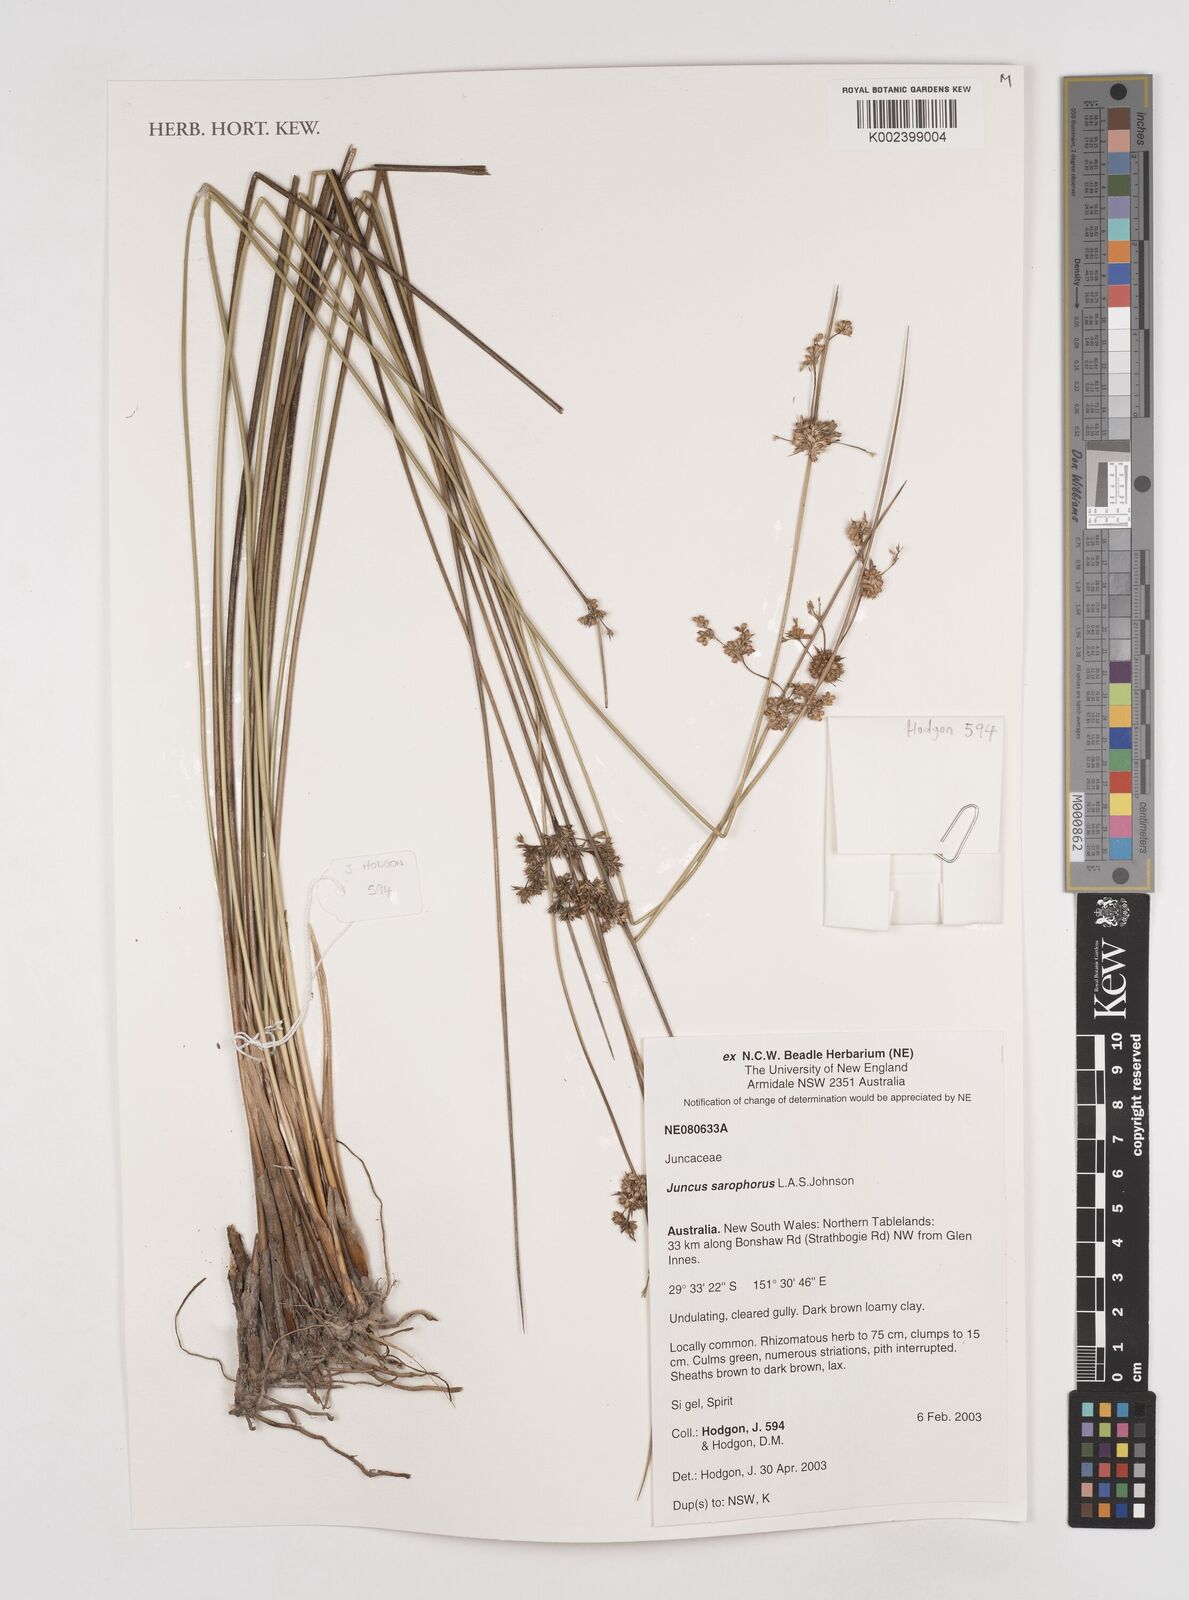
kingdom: Plantae
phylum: Tracheophyta
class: Liliopsida
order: Poales
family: Juncaceae
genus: Juncus
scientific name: Juncus sarophorus
